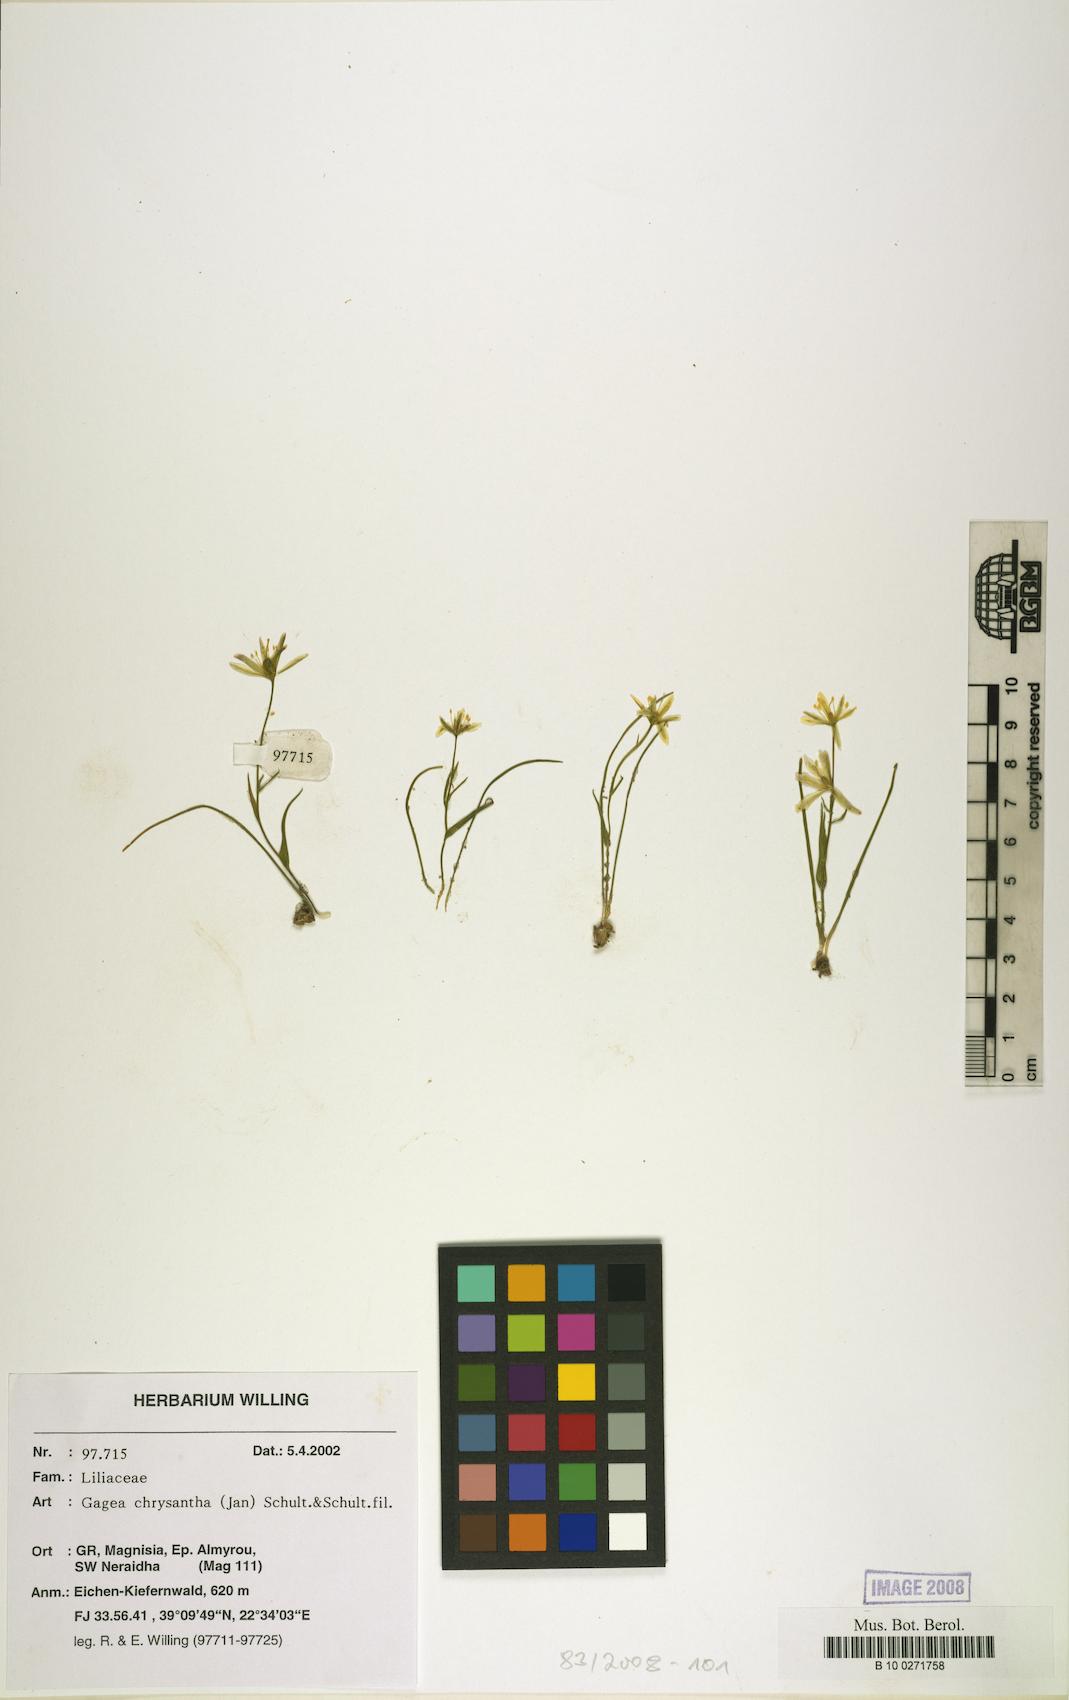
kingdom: Plantae
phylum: Tracheophyta
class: Liliopsida
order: Liliales
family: Liliaceae
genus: Gagea
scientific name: Gagea chrysantha
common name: Golden gagea
